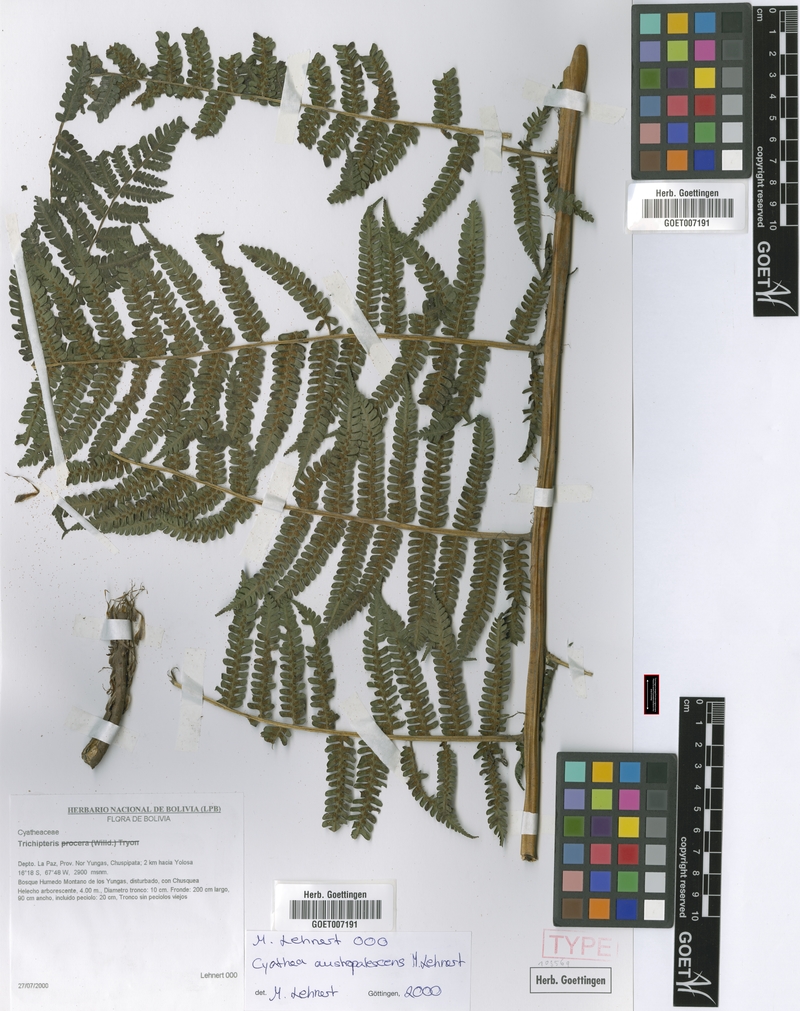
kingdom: Plantae
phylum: Tracheophyta
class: Polypodiopsida
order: Cyatheales
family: Cyatheaceae
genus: Cyathea
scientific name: Cyathea austropallescens
